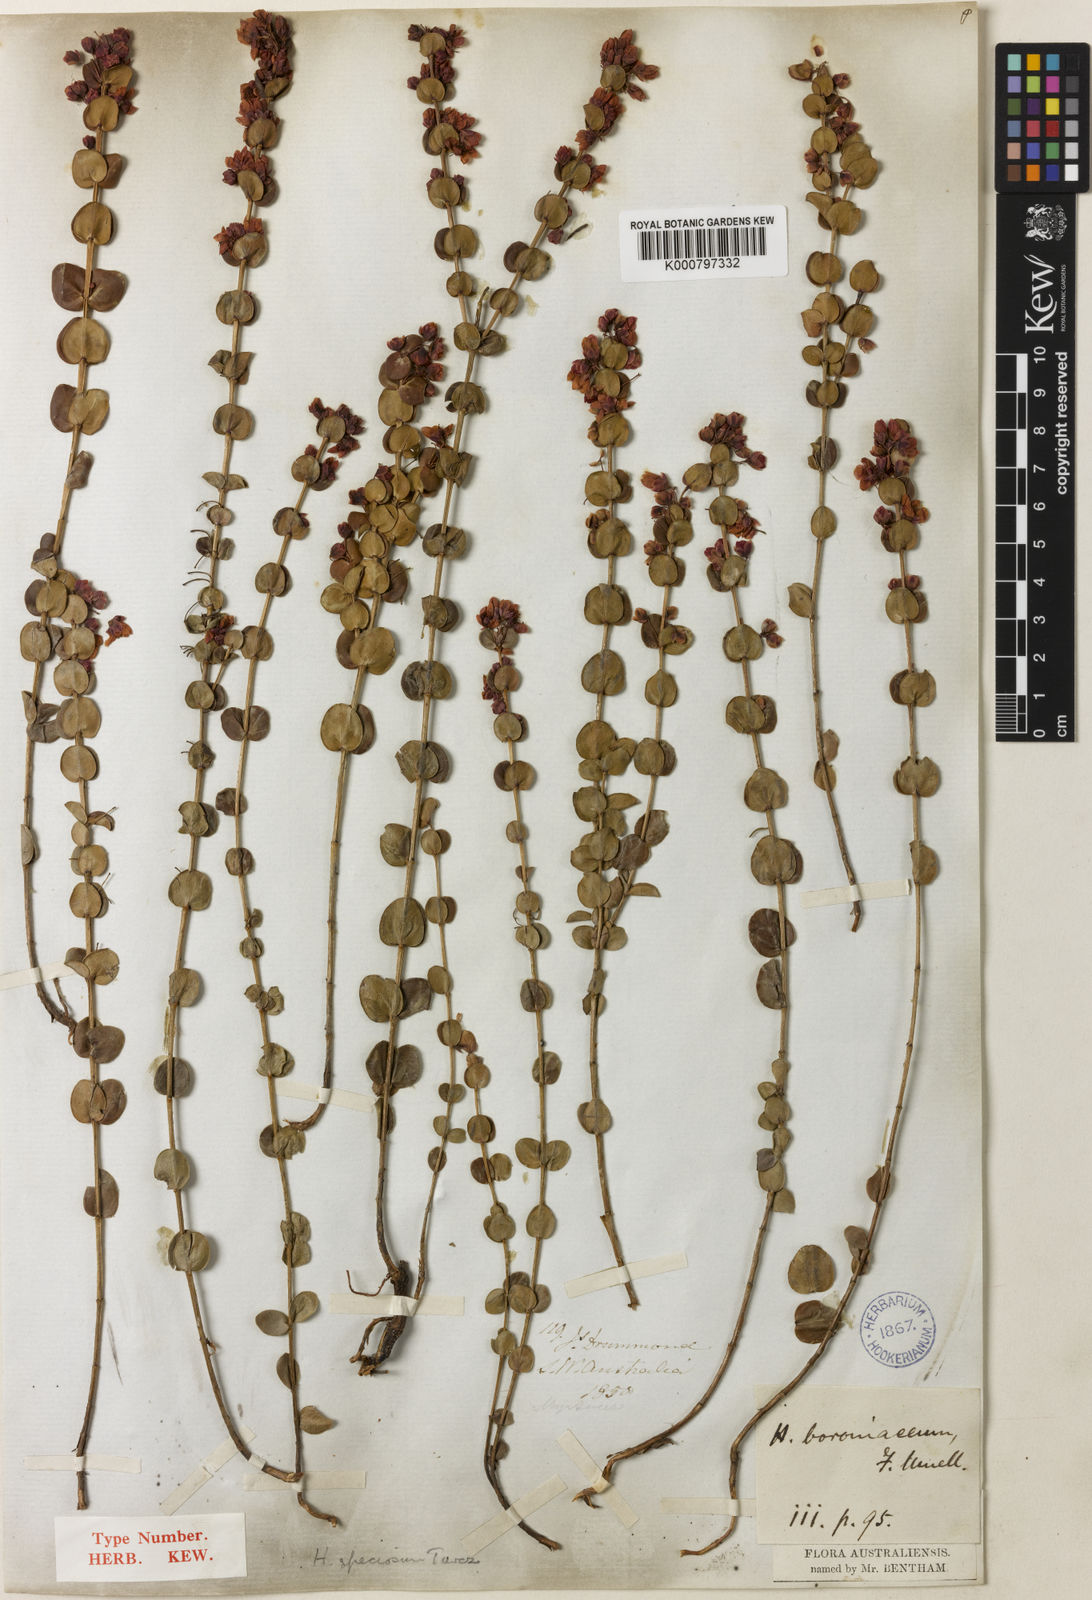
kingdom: Plantae
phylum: Tracheophyta
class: Magnoliopsida
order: Myrtales
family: Myrtaceae
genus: Hypocalymma
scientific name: Hypocalymma speciosum
